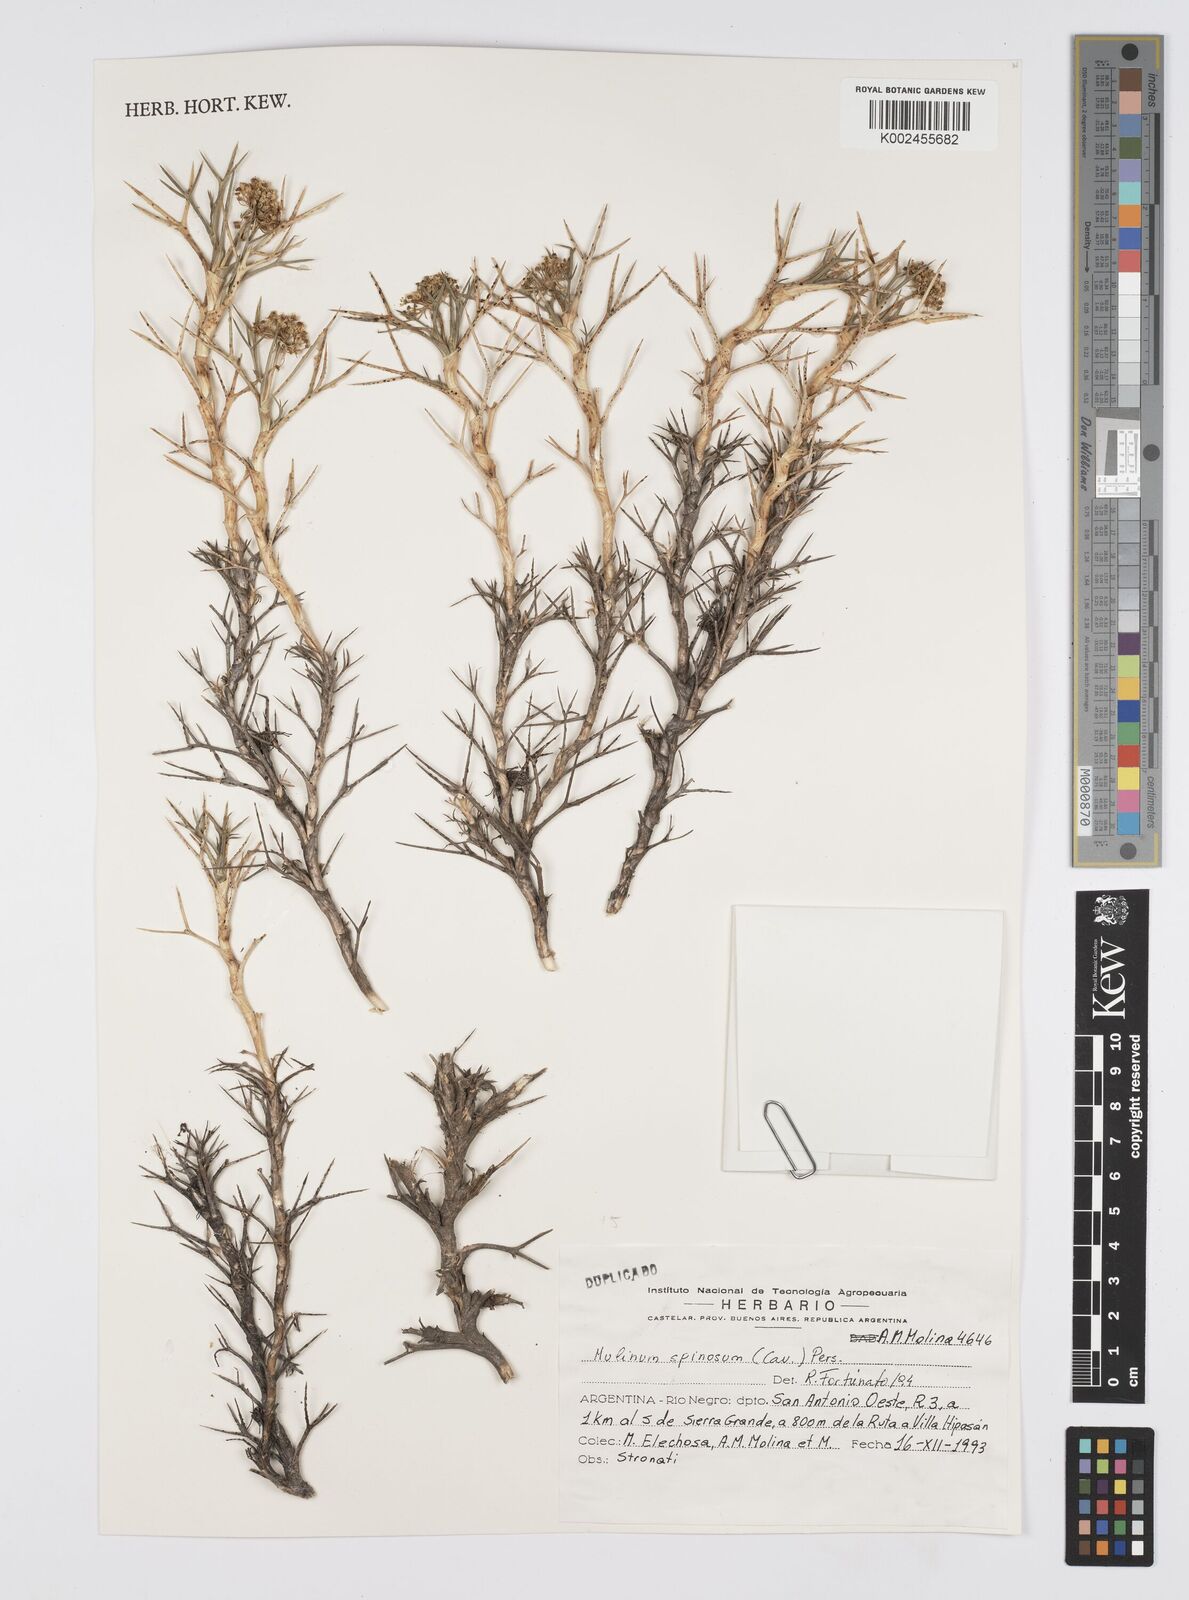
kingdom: Plantae
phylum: Tracheophyta
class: Magnoliopsida
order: Apiales
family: Apiaceae
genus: Azorella
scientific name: Azorella prolifera
